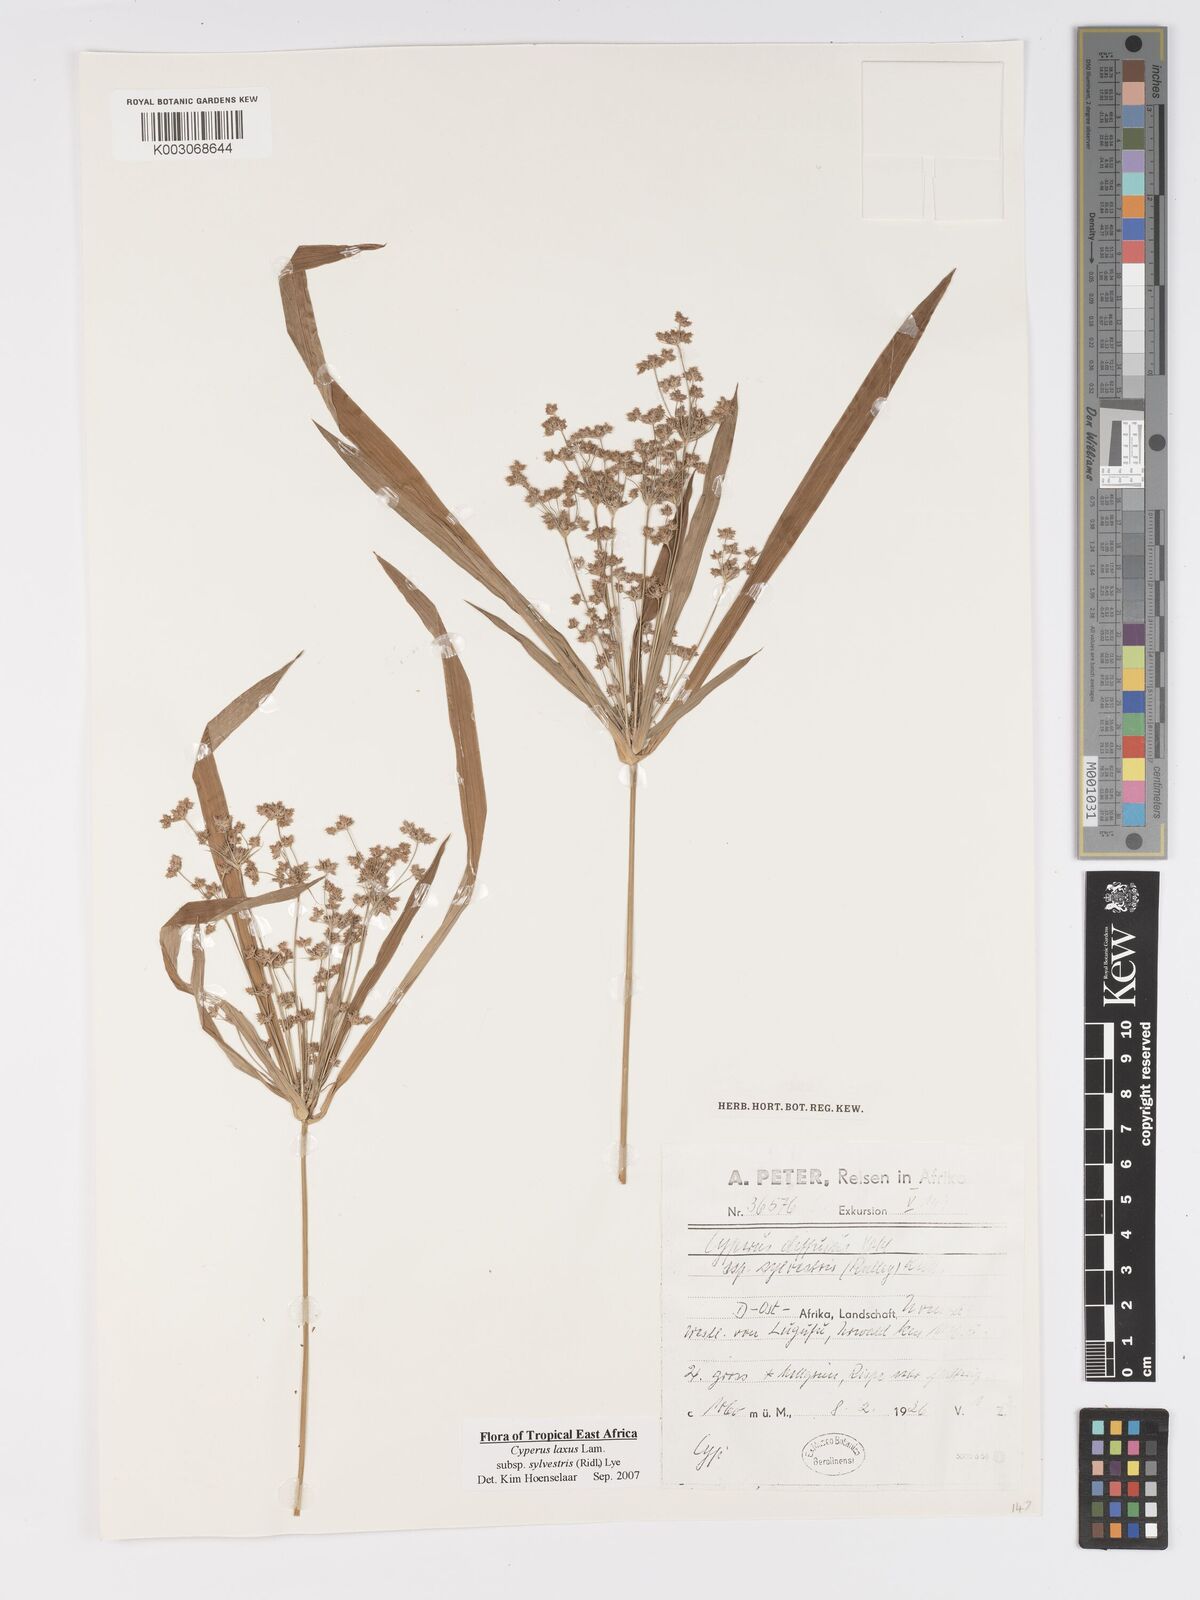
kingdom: Plantae
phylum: Tracheophyta
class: Liliopsida
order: Poales
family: Cyperaceae
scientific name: Cyperaceae
